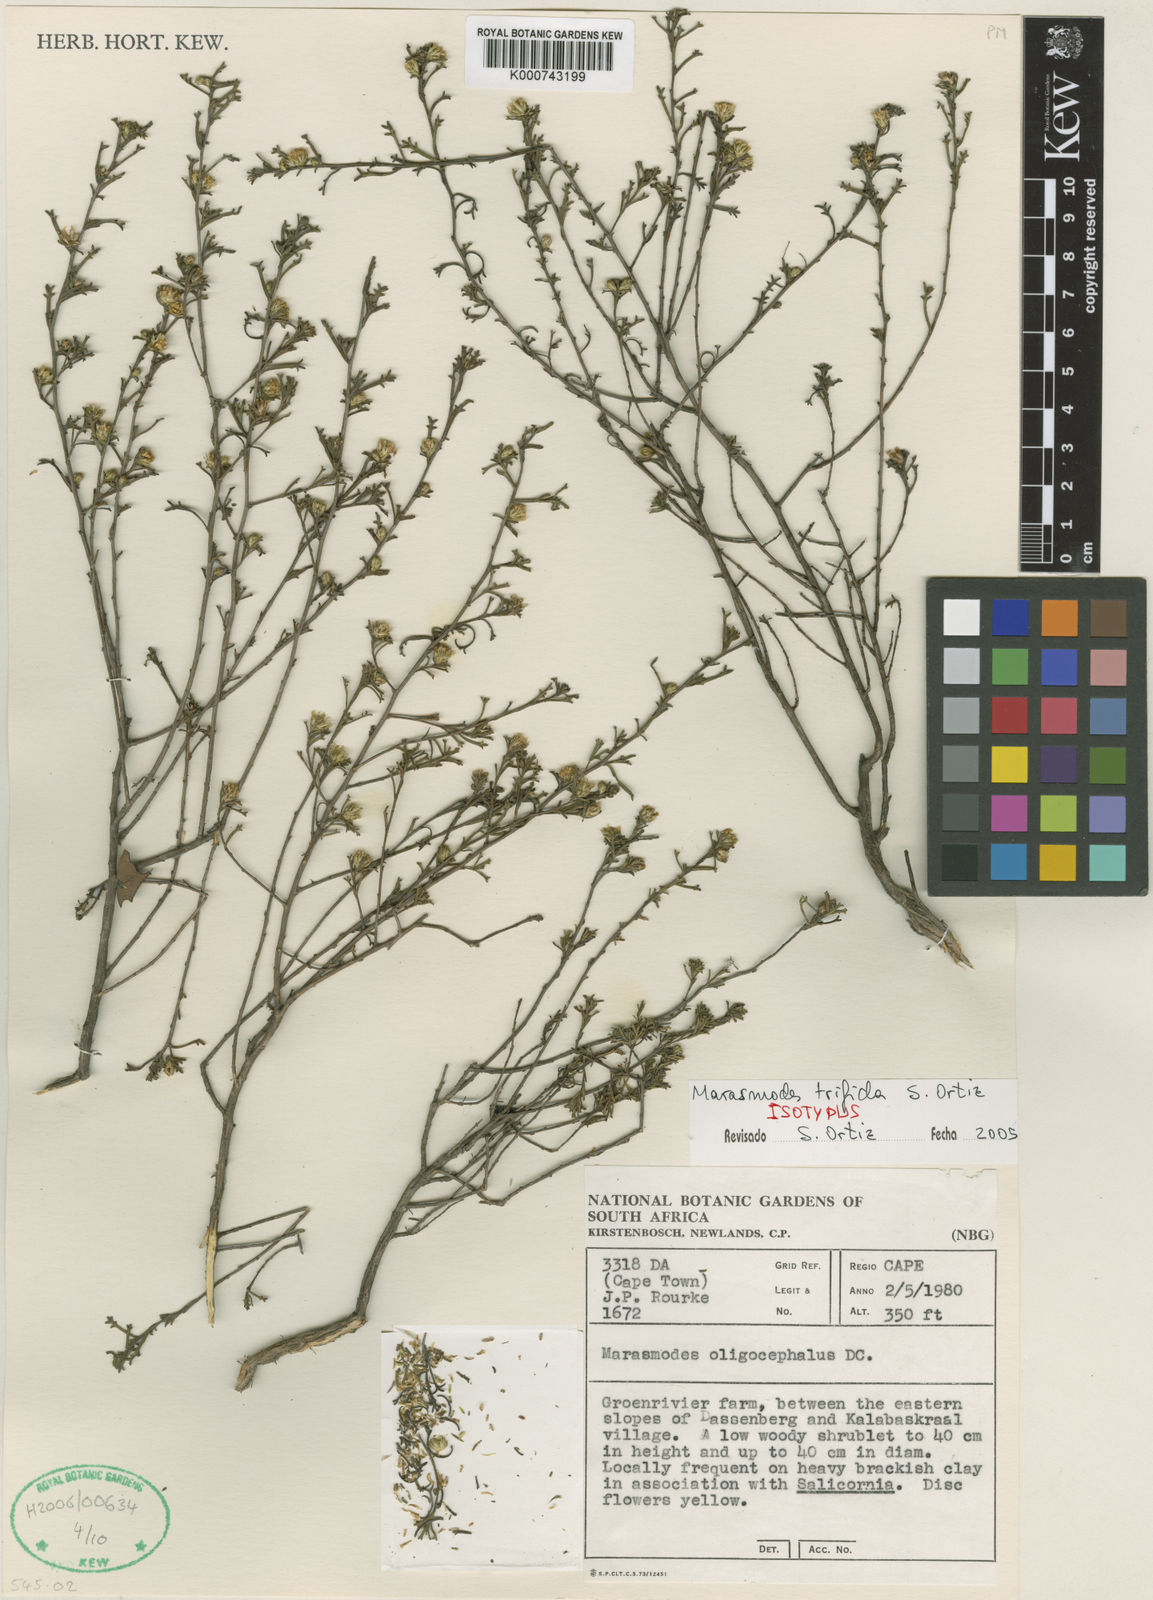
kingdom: Plantae
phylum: Tracheophyta
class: Magnoliopsida
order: Asterales
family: Asteraceae
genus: Marasmodes
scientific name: Marasmodes trifida
